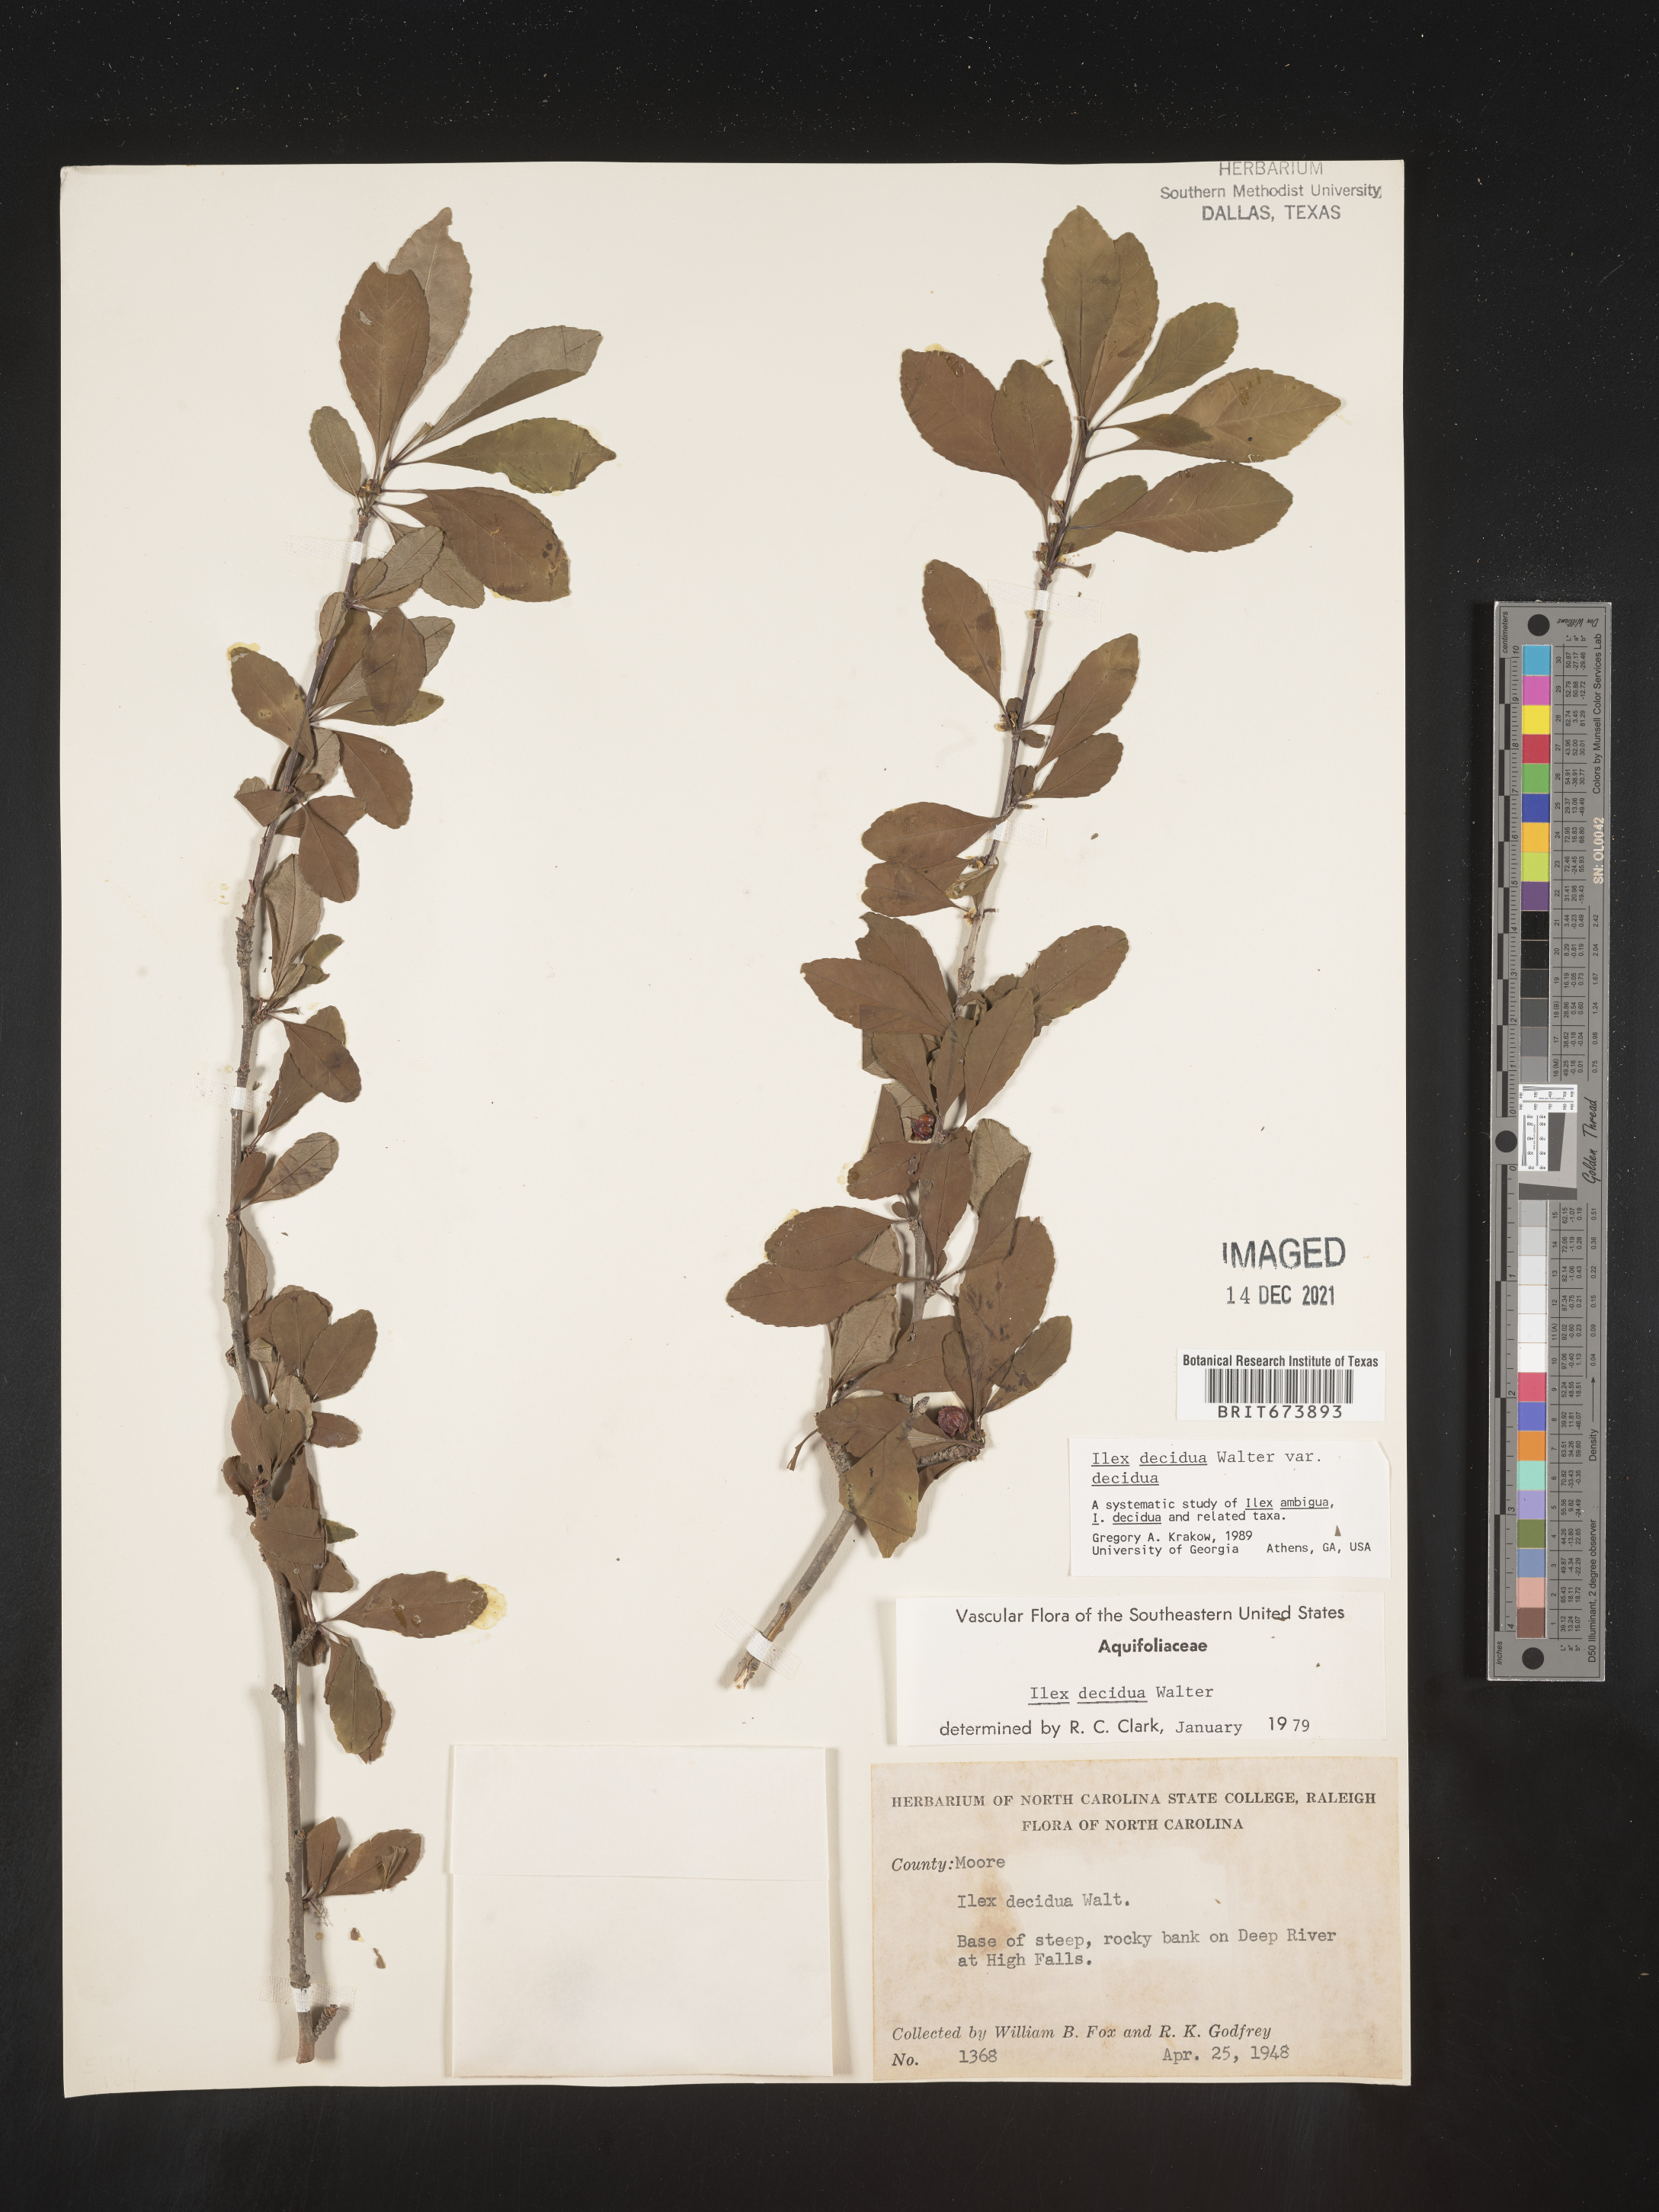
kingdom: Plantae
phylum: Tracheophyta
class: Magnoliopsida
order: Aquifoliales
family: Aquifoliaceae
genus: Ilex
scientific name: Ilex decidua
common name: Possum-haw
